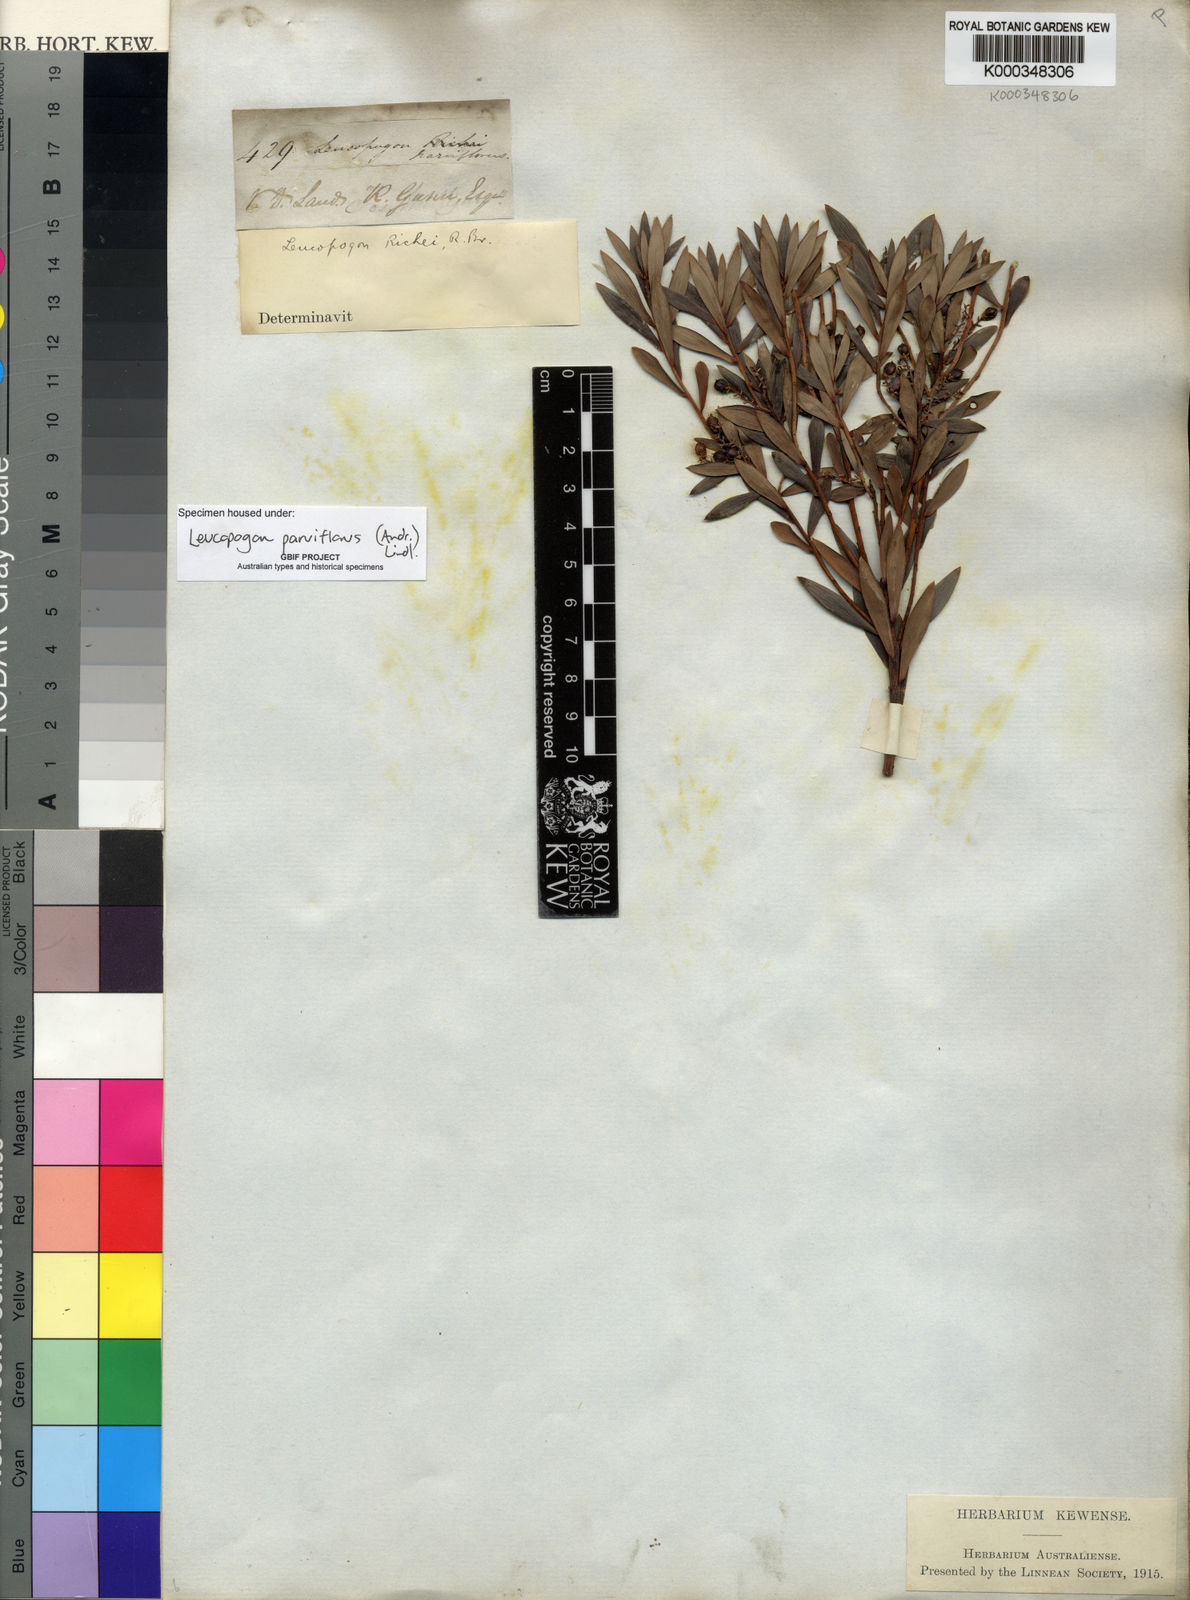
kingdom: Plantae
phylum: Tracheophyta
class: Magnoliopsida
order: Ericales
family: Ericaceae
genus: Leptecophylla
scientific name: Leptecophylla parvifolia
